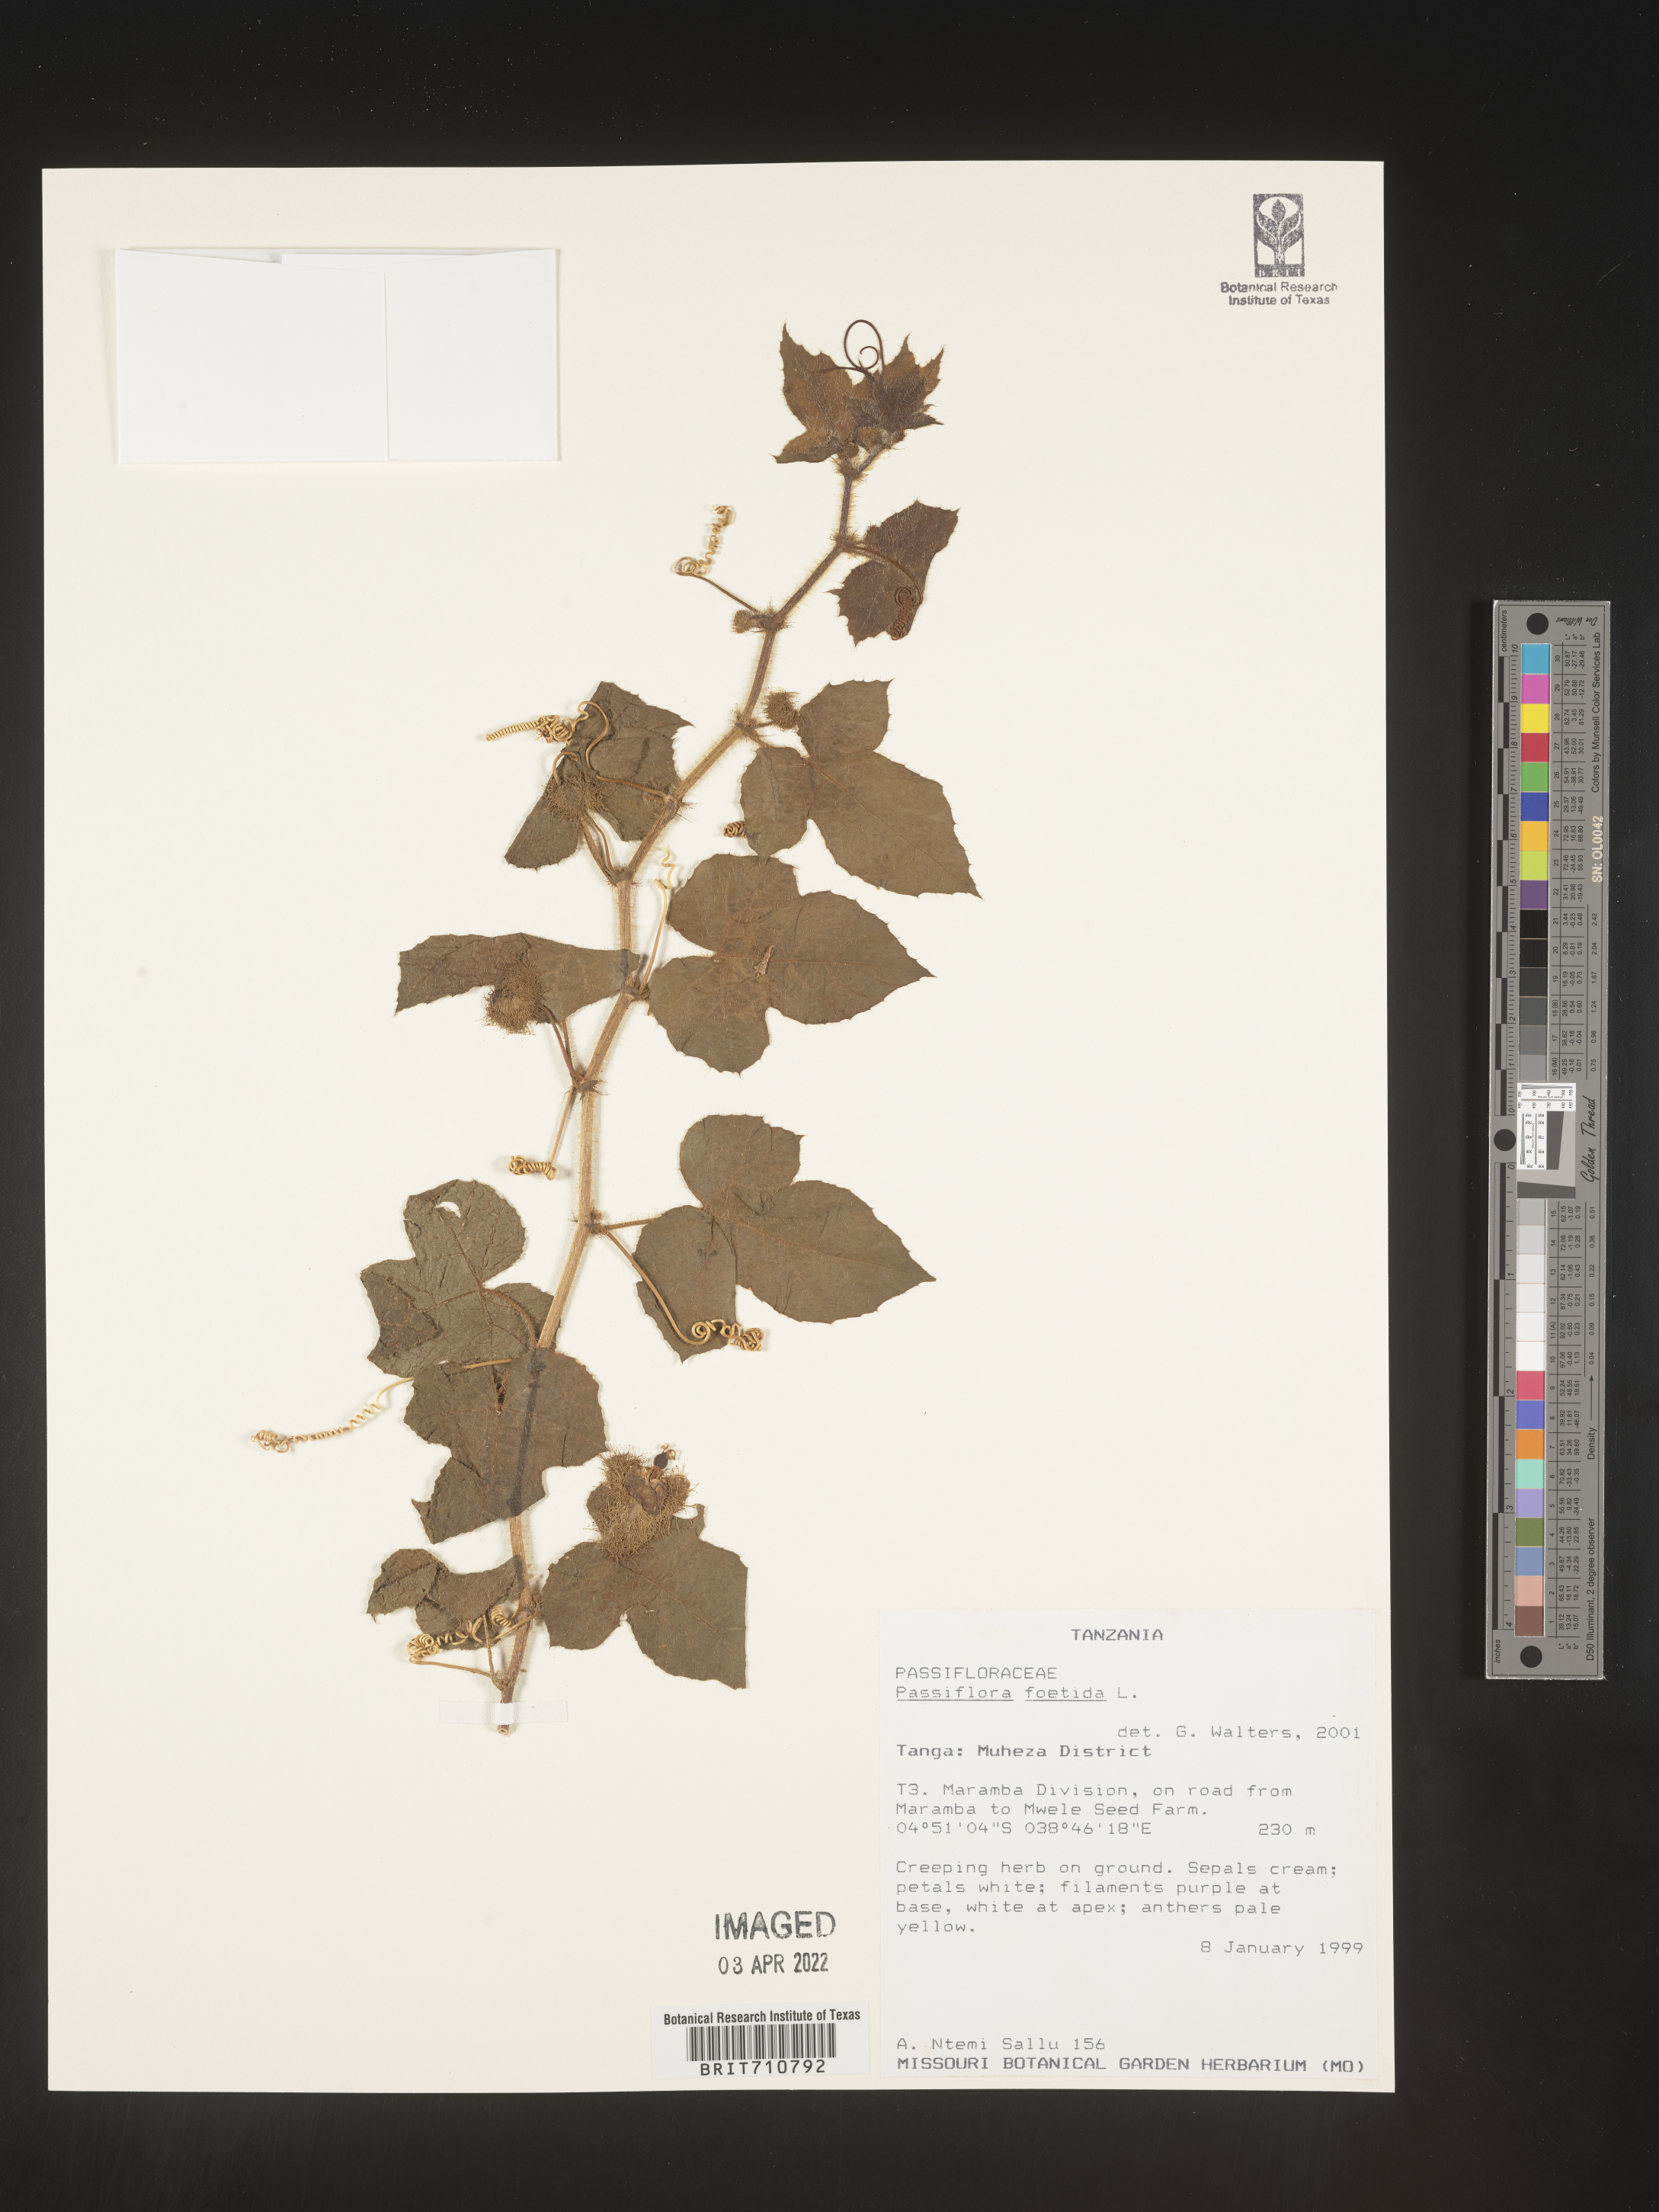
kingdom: Plantae
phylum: Tracheophyta
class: Magnoliopsida
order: Malpighiales
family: Passifloraceae
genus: Passiflora
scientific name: Passiflora
